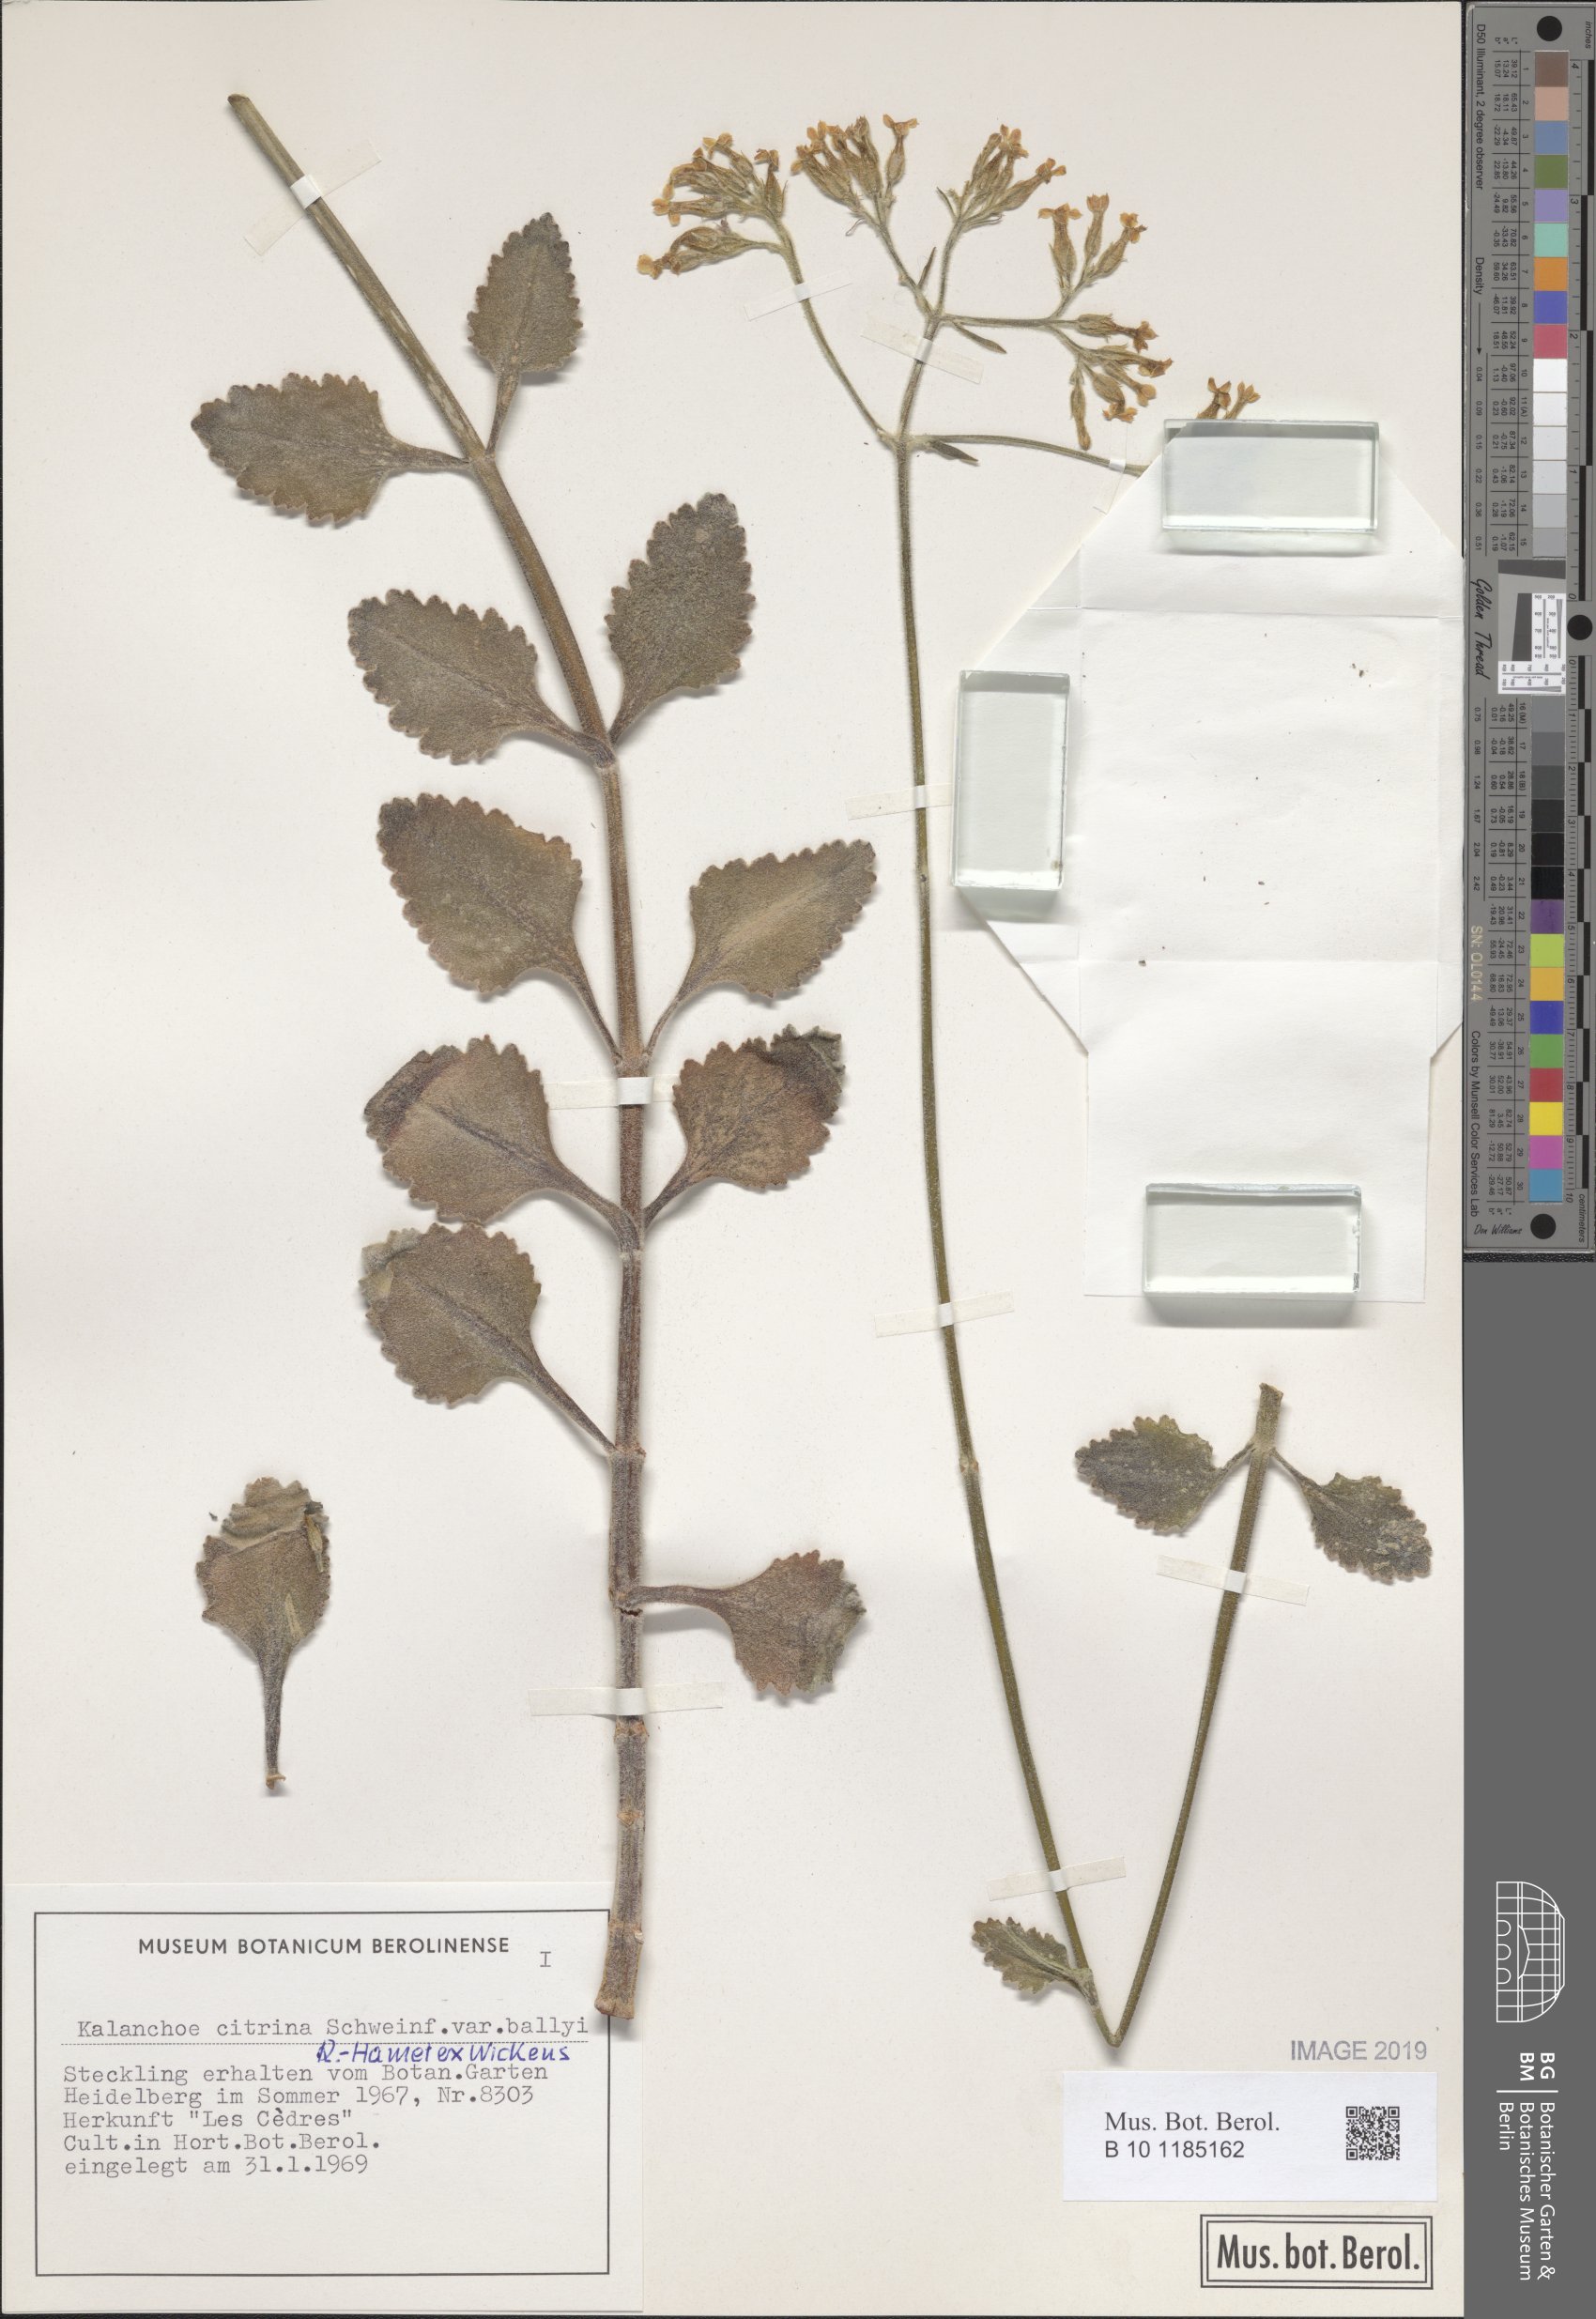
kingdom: Plantae
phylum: Tracheophyta
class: Magnoliopsida
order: Saxifragales
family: Crassulaceae
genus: Kalanchoe
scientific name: Kalanchoe citrina
